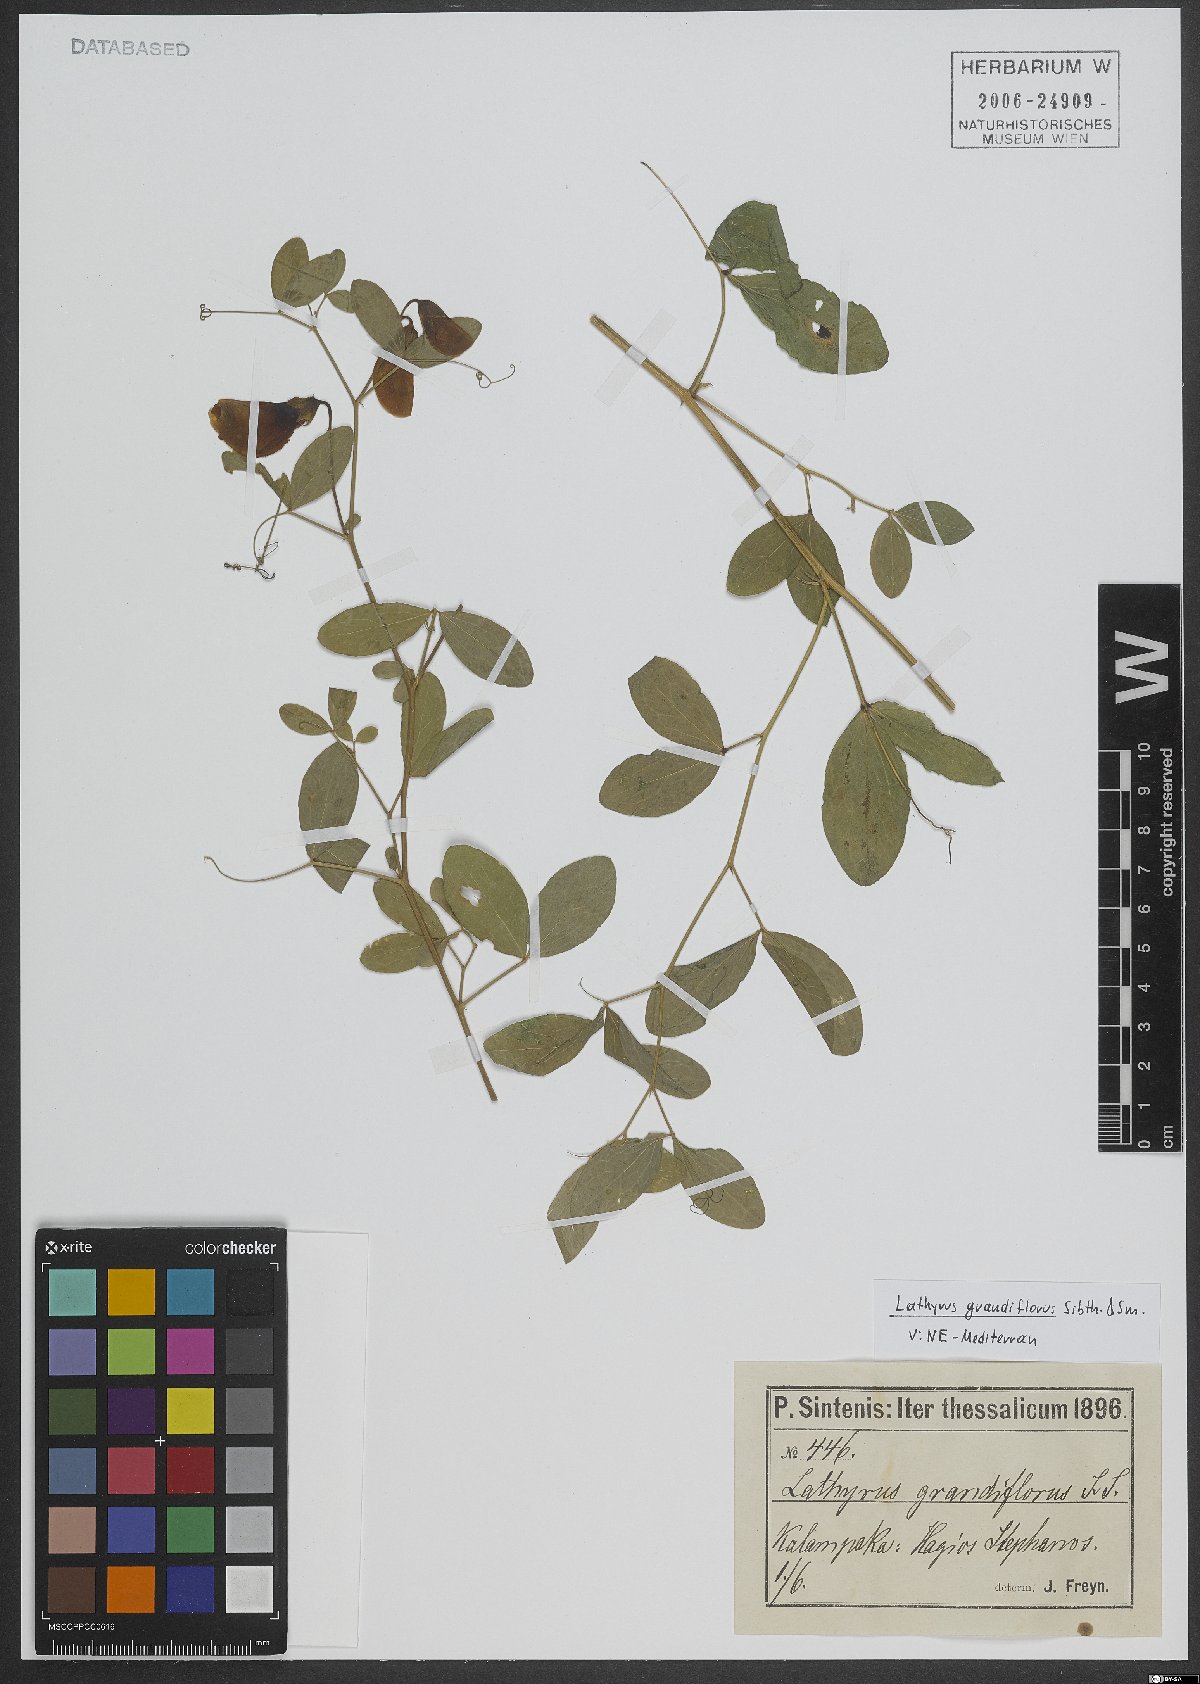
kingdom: Plantae
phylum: Tracheophyta
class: Magnoliopsida
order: Fabales
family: Fabaceae
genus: Lathyrus
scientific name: Lathyrus grandiflorus
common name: Two-flowered everlasting-pea
